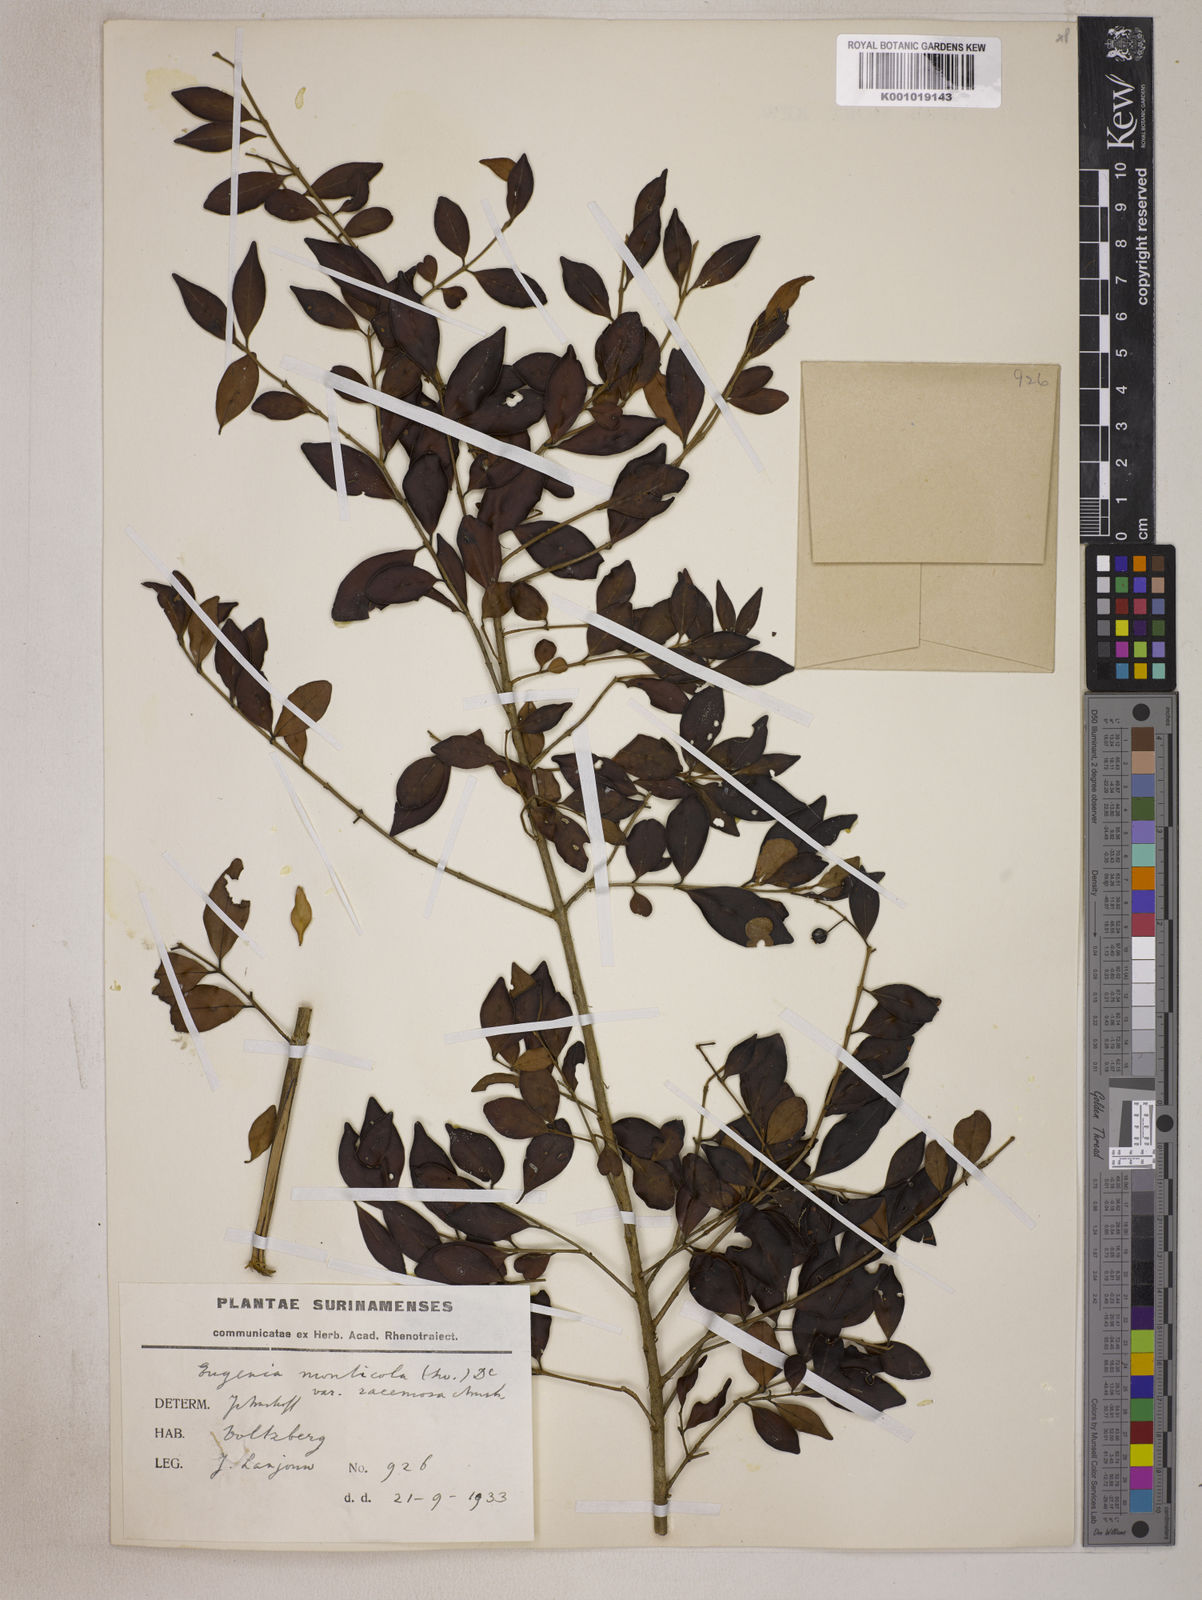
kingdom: Plantae
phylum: Tracheophyta
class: Magnoliopsida
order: Myrtales
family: Myrtaceae
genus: Eugenia
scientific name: Eugenia monticola
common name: Birds berry
